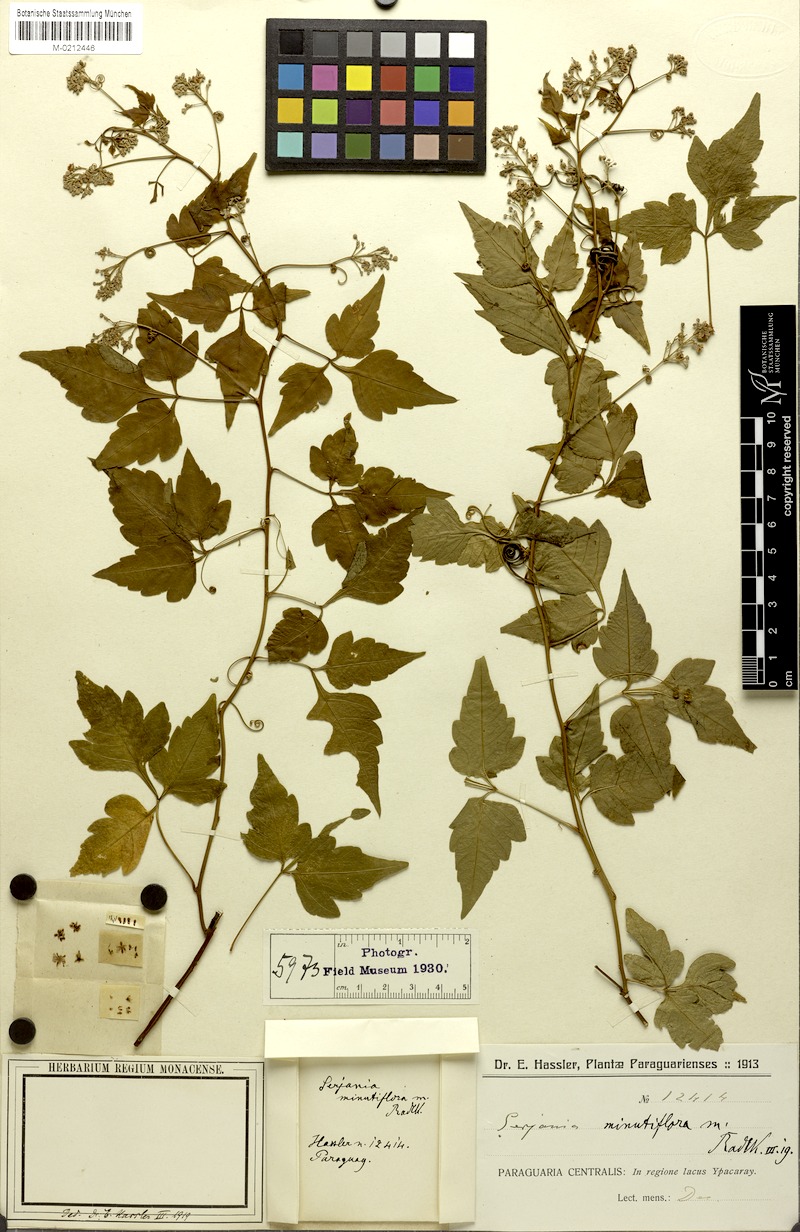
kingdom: Plantae
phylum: Tracheophyta
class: Magnoliopsida
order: Sapindales
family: Sapindaceae
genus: Serjania
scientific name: Serjania multiflora
